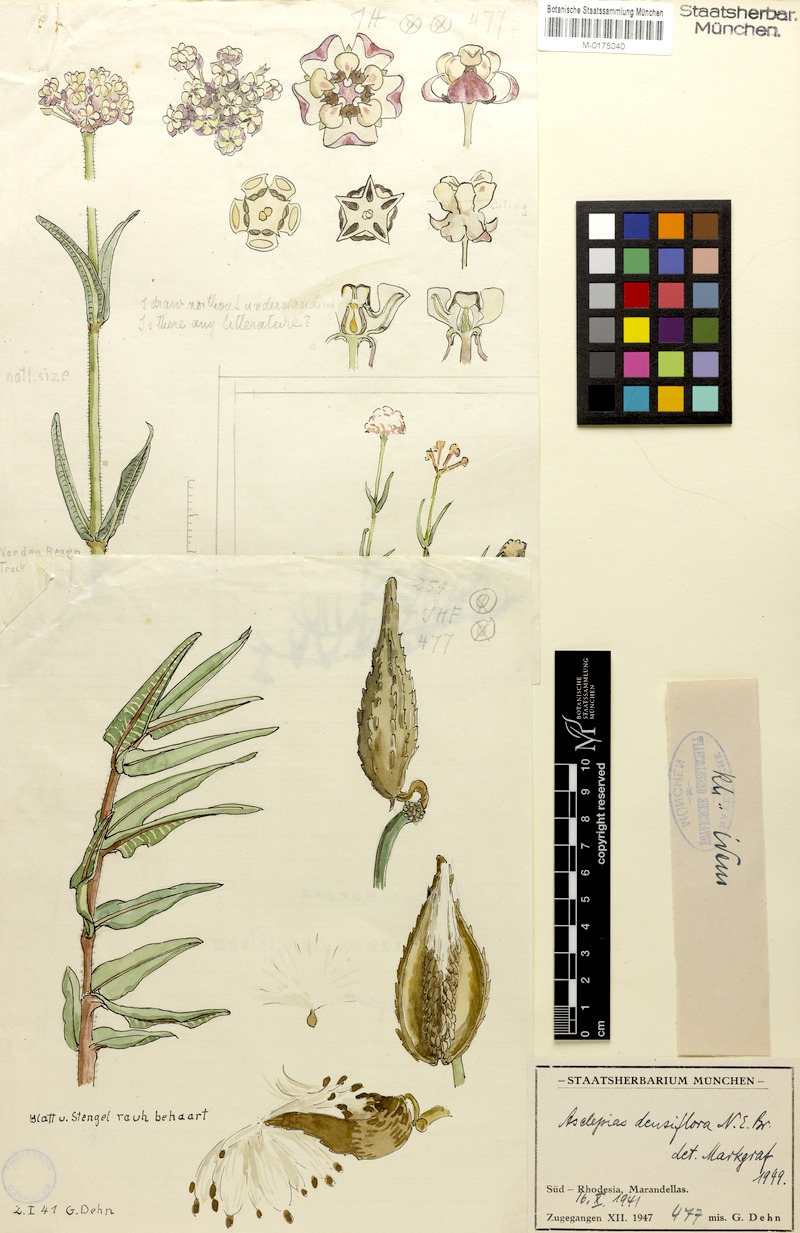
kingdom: Plantae
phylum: Tracheophyta
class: Magnoliopsida
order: Gentianales
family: Apocynaceae
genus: Asclepias
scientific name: Asclepias densiflora
